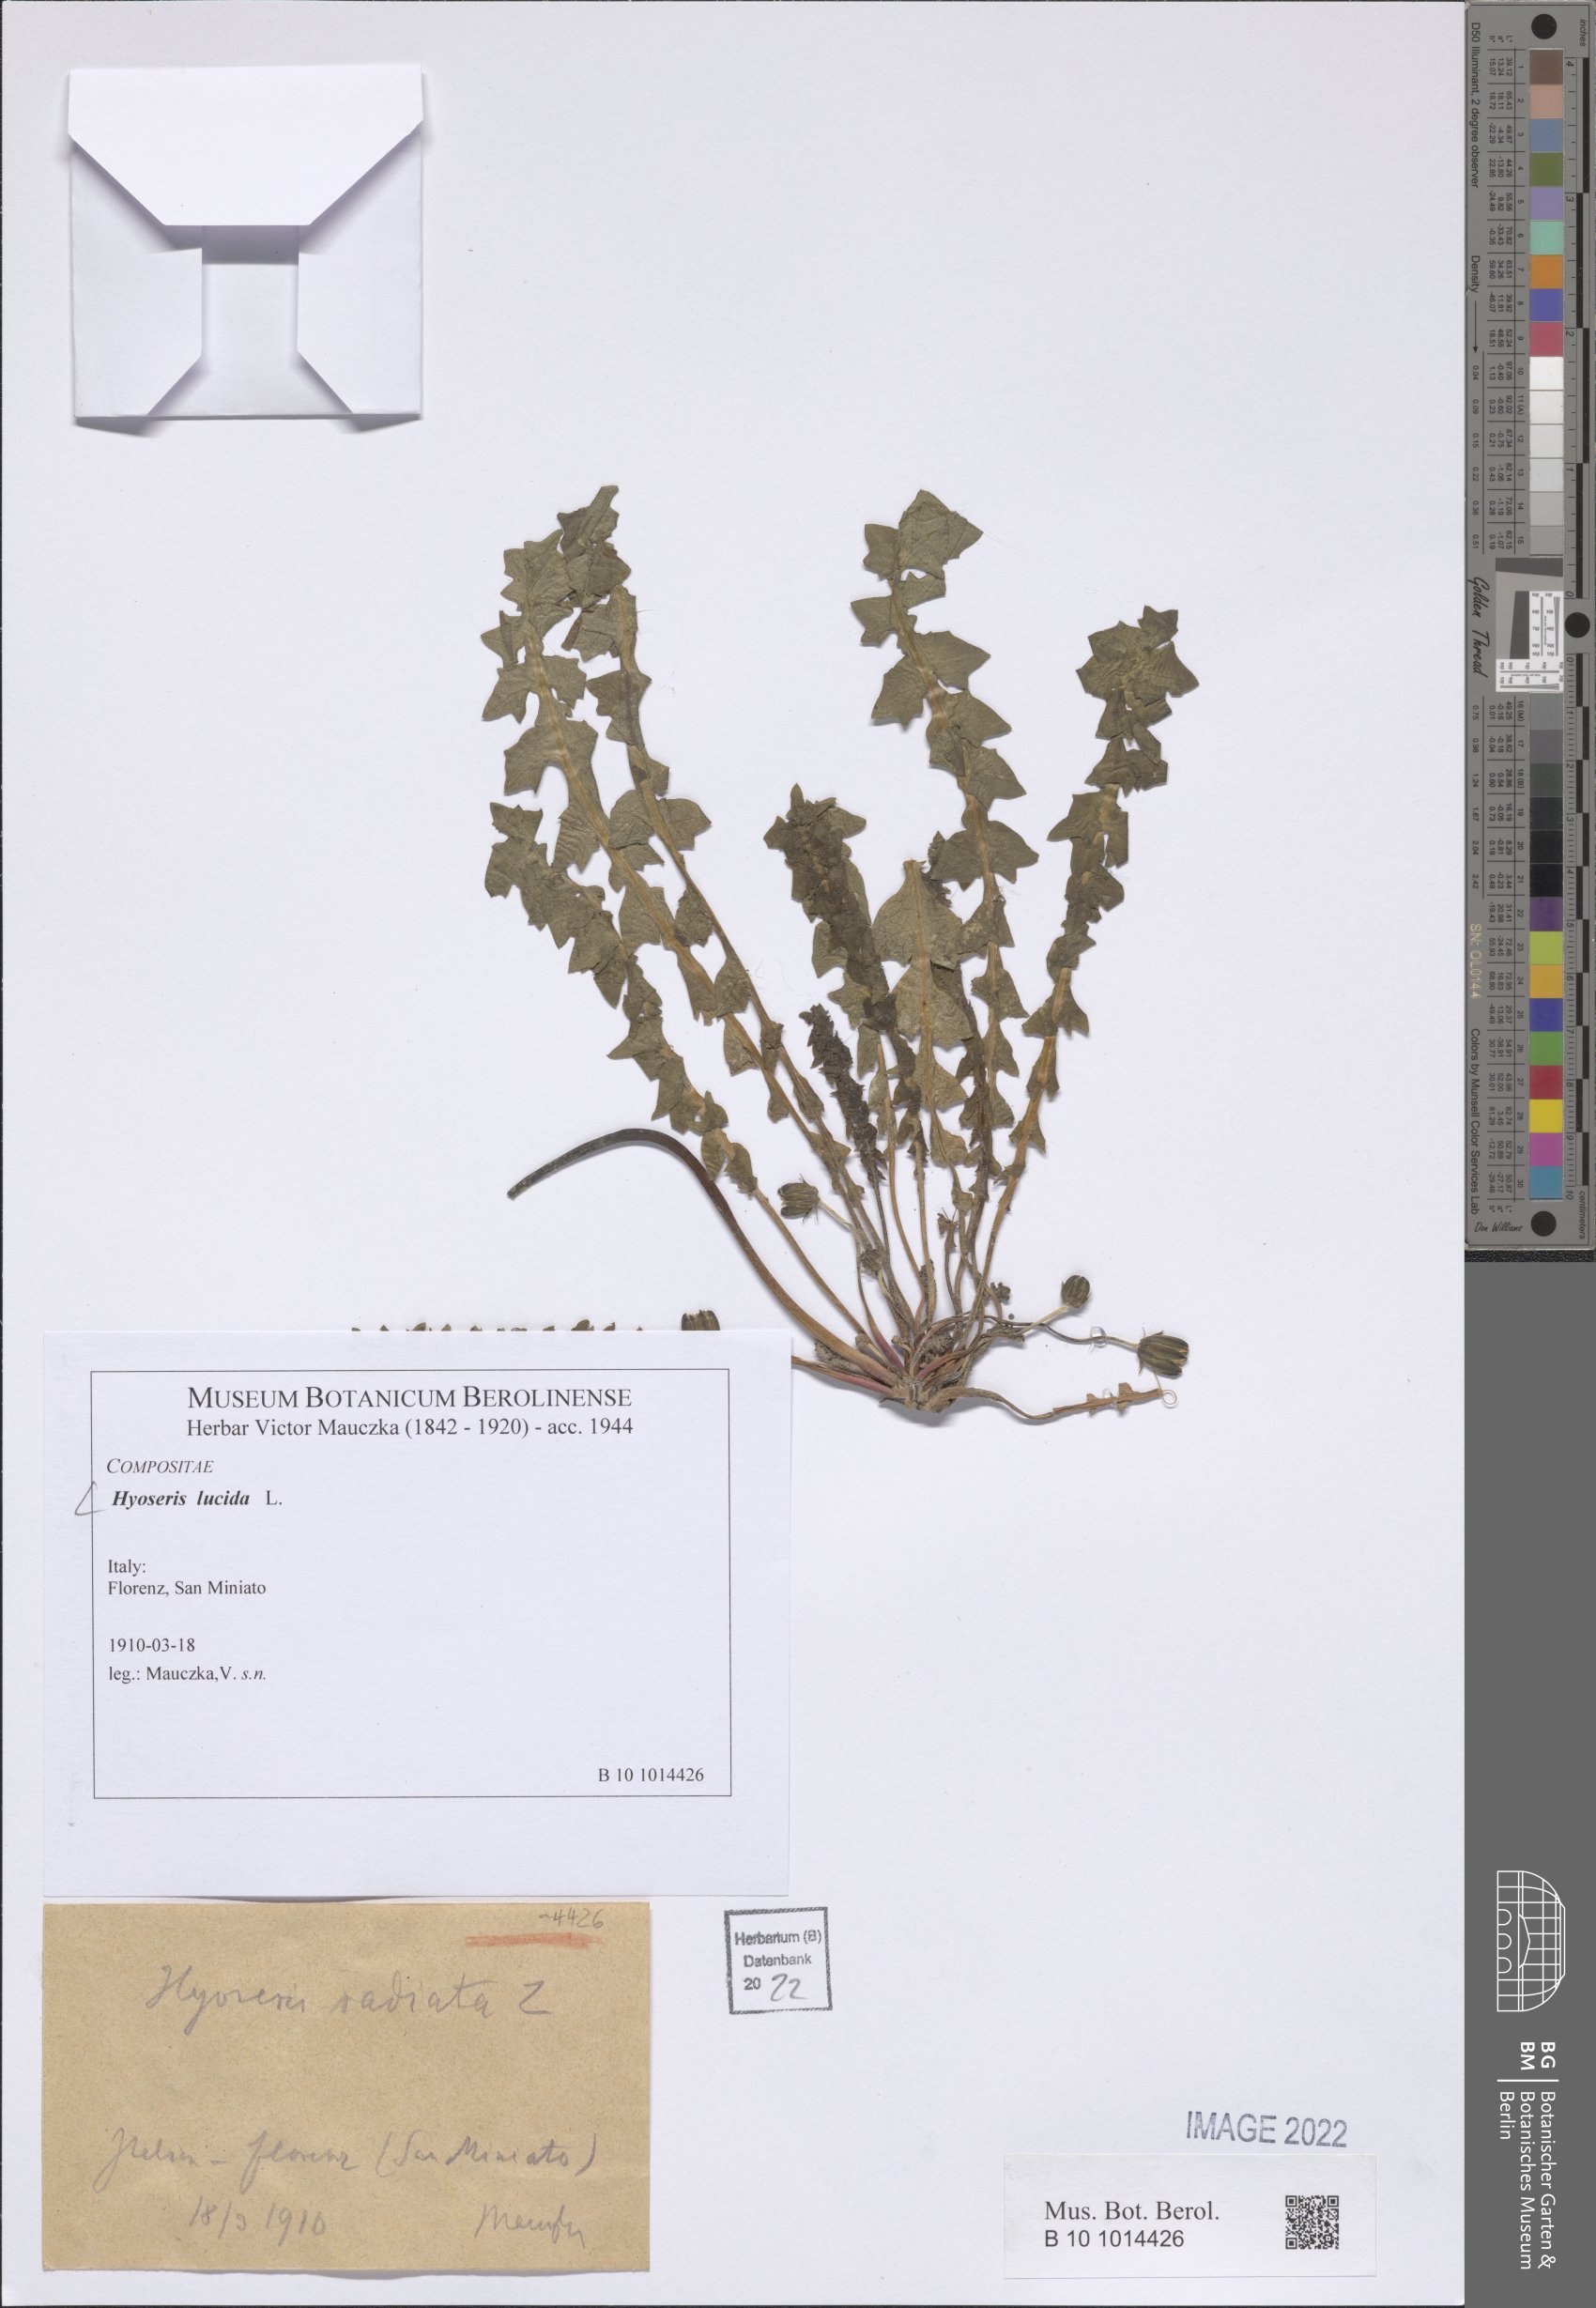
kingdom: Plantae
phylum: Tracheophyta
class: Magnoliopsida
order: Asterales
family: Asteraceae
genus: Hyoseris
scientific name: Hyoseris lucida
